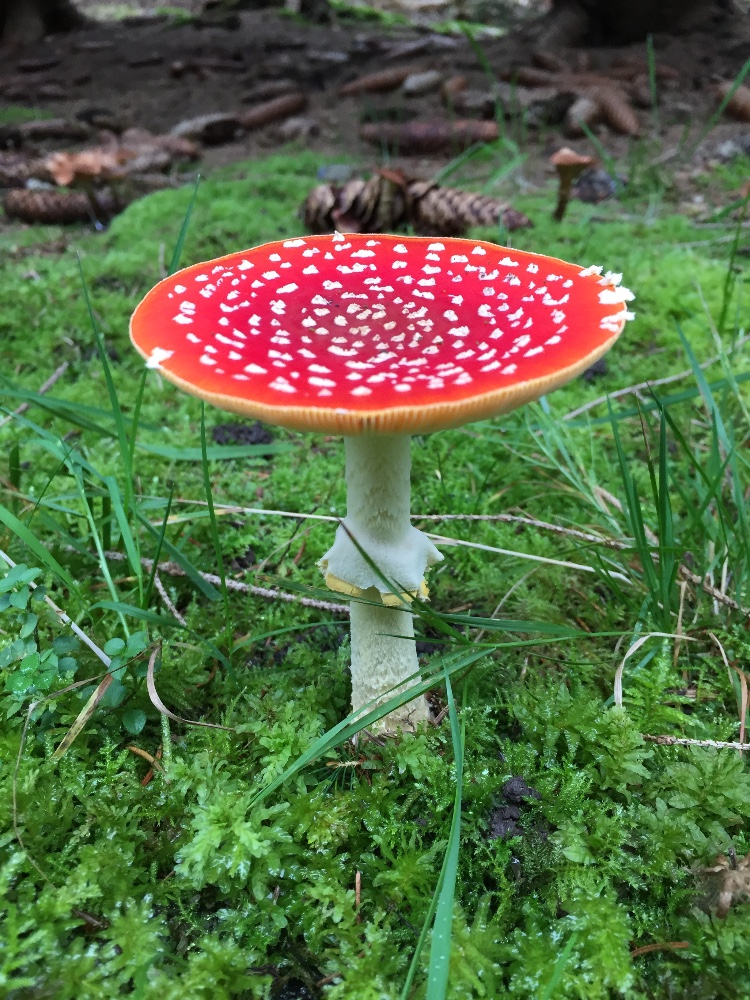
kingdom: Fungi
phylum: Basidiomycota
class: Agaricomycetes
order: Agaricales
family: Amanitaceae
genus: Amanita
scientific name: Amanita muscaria
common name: rød fluesvamp
